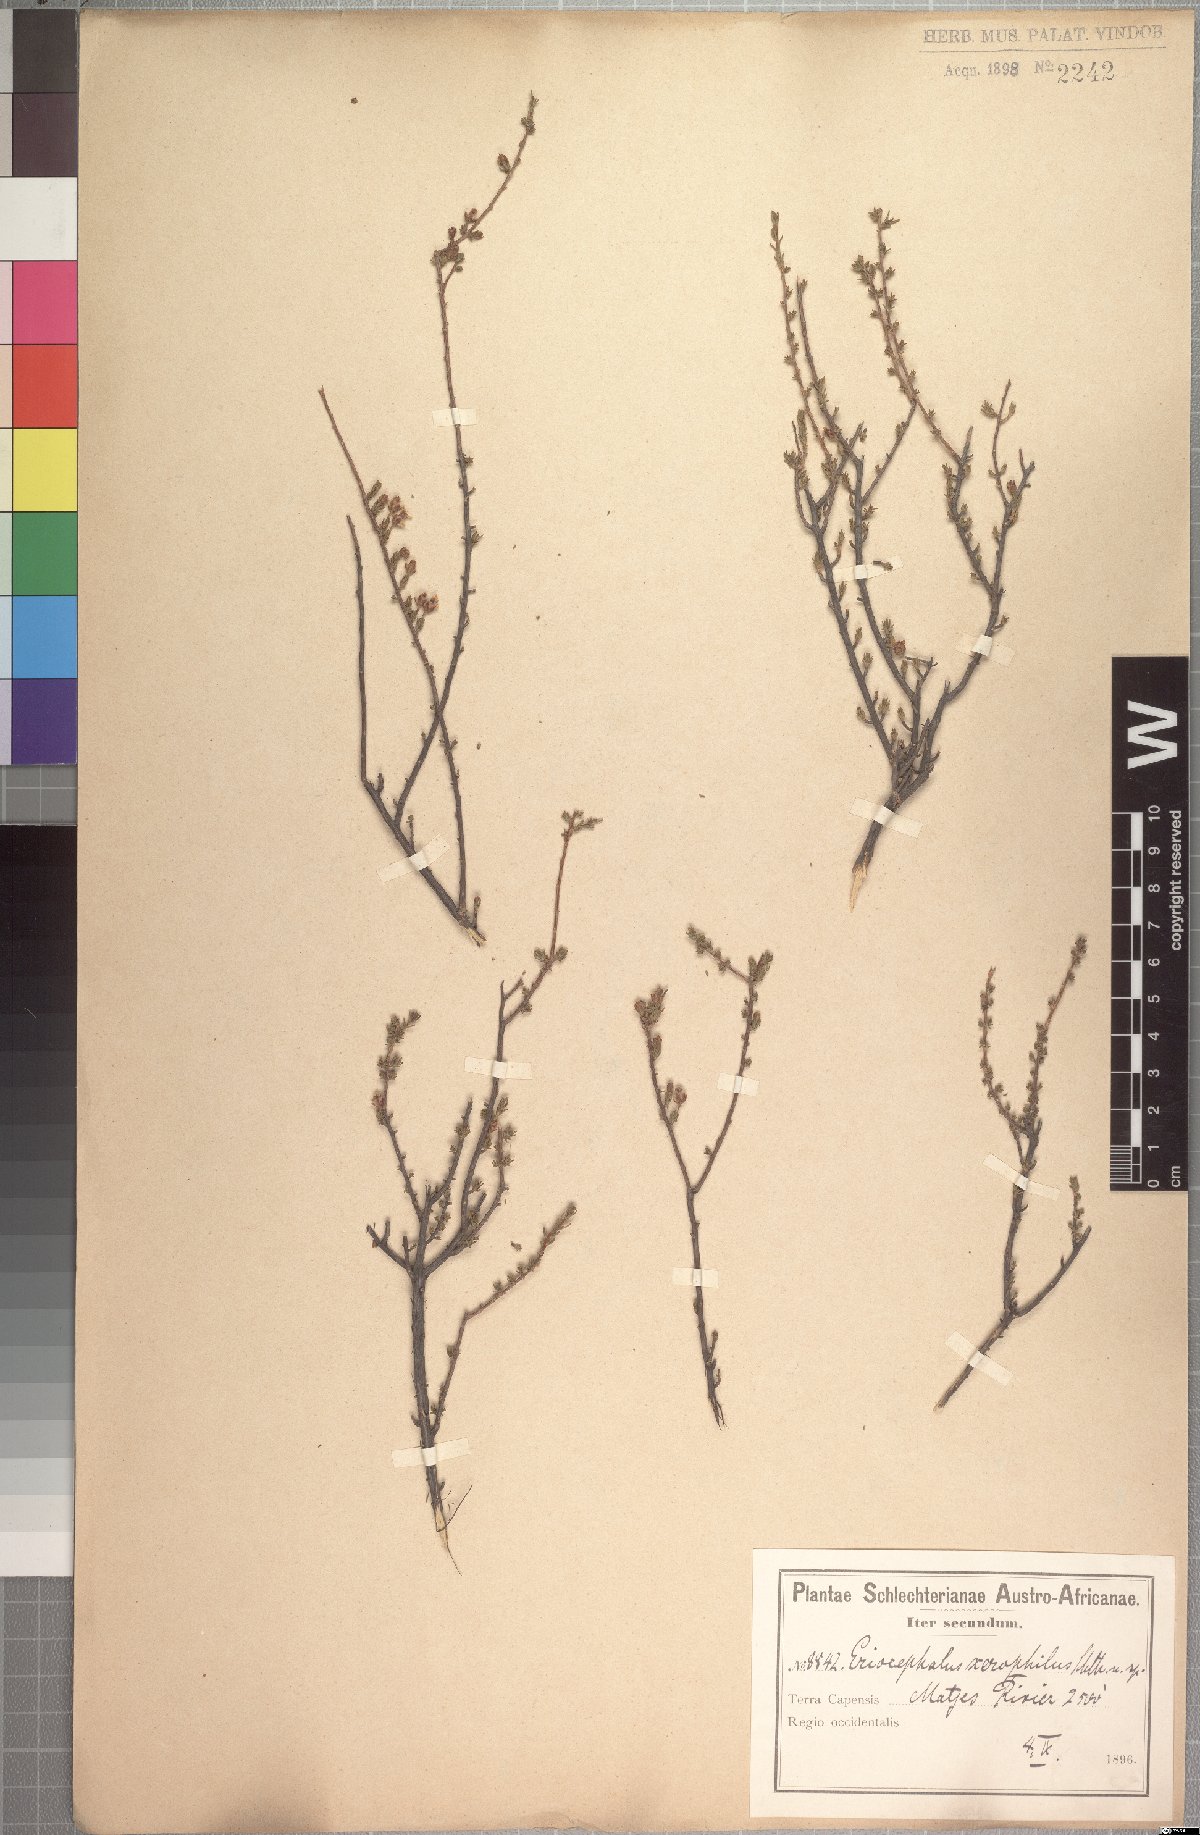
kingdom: Plantae
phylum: Tracheophyta
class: Magnoliopsida
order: Asterales
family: Asteraceae
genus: Eriocephalus
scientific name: Eriocephalus purpureus
